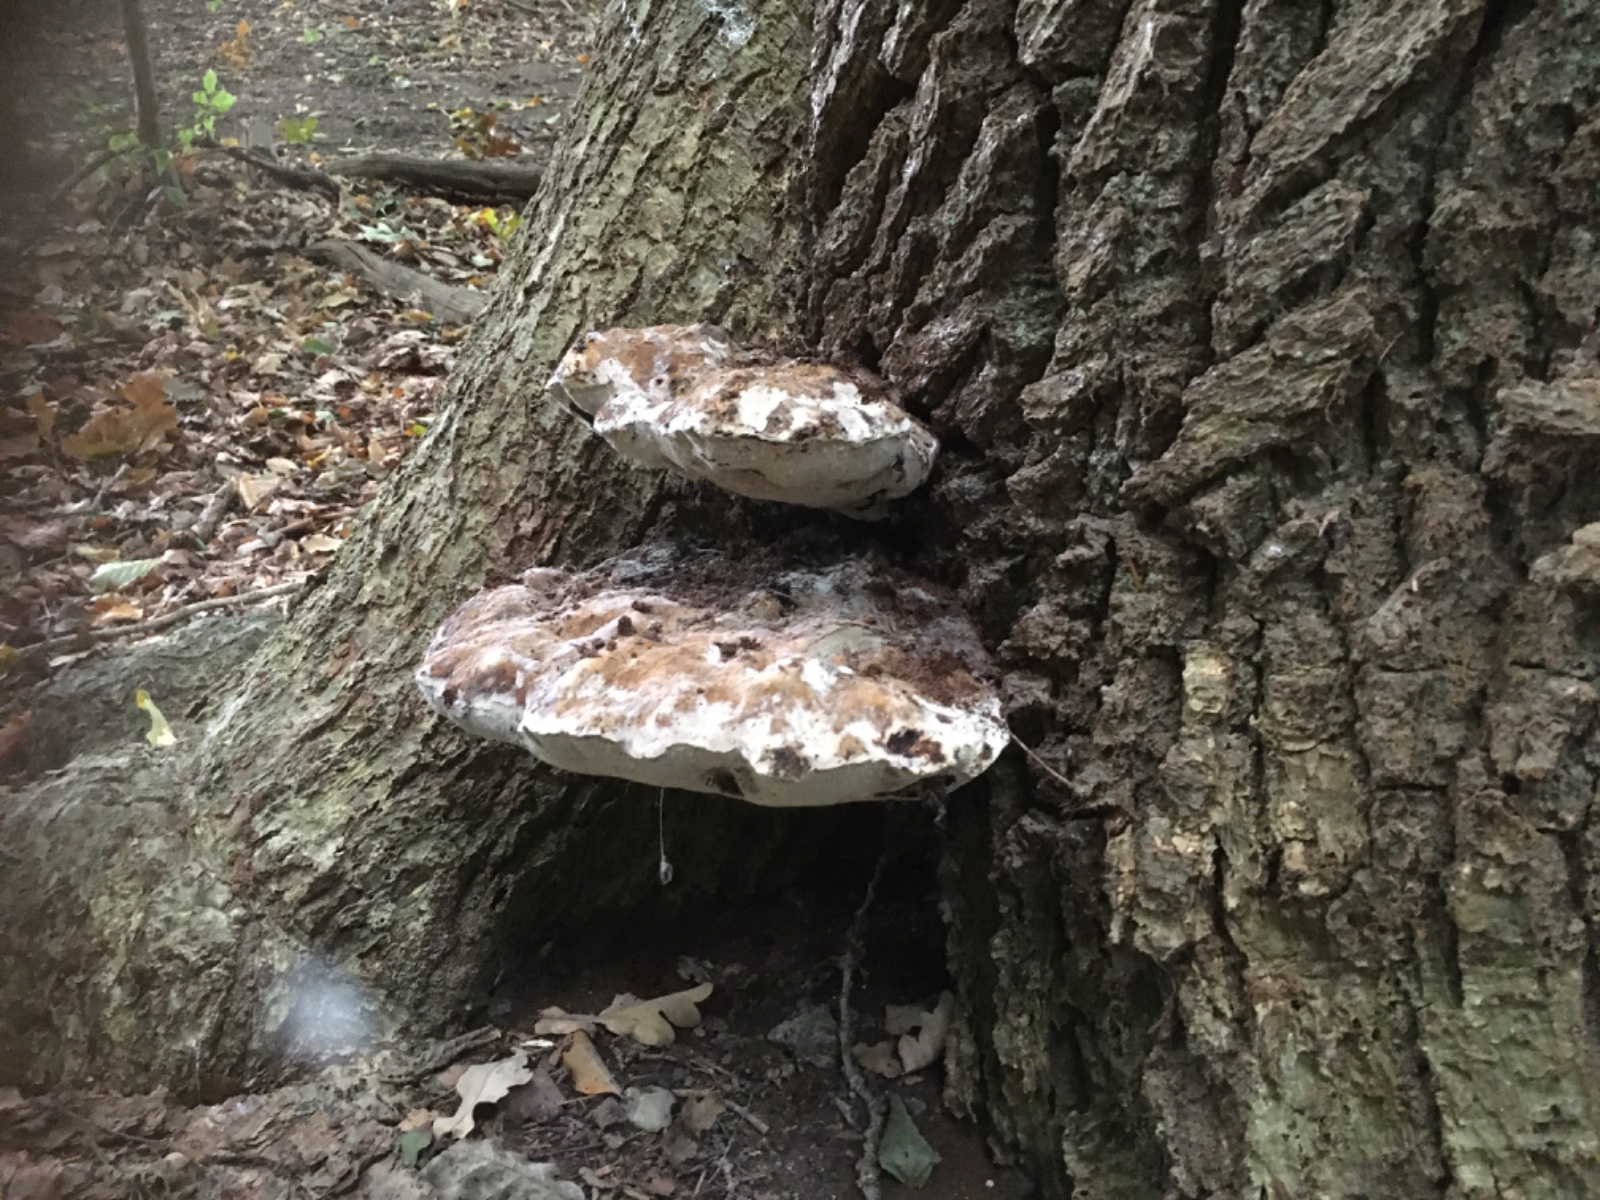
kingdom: Fungi
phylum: Basidiomycota
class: Agaricomycetes
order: Hymenochaetales
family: Hymenochaetaceae
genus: Pseudoinonotus
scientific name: Pseudoinonotus dryadeus
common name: ege-spejlporesvamp
